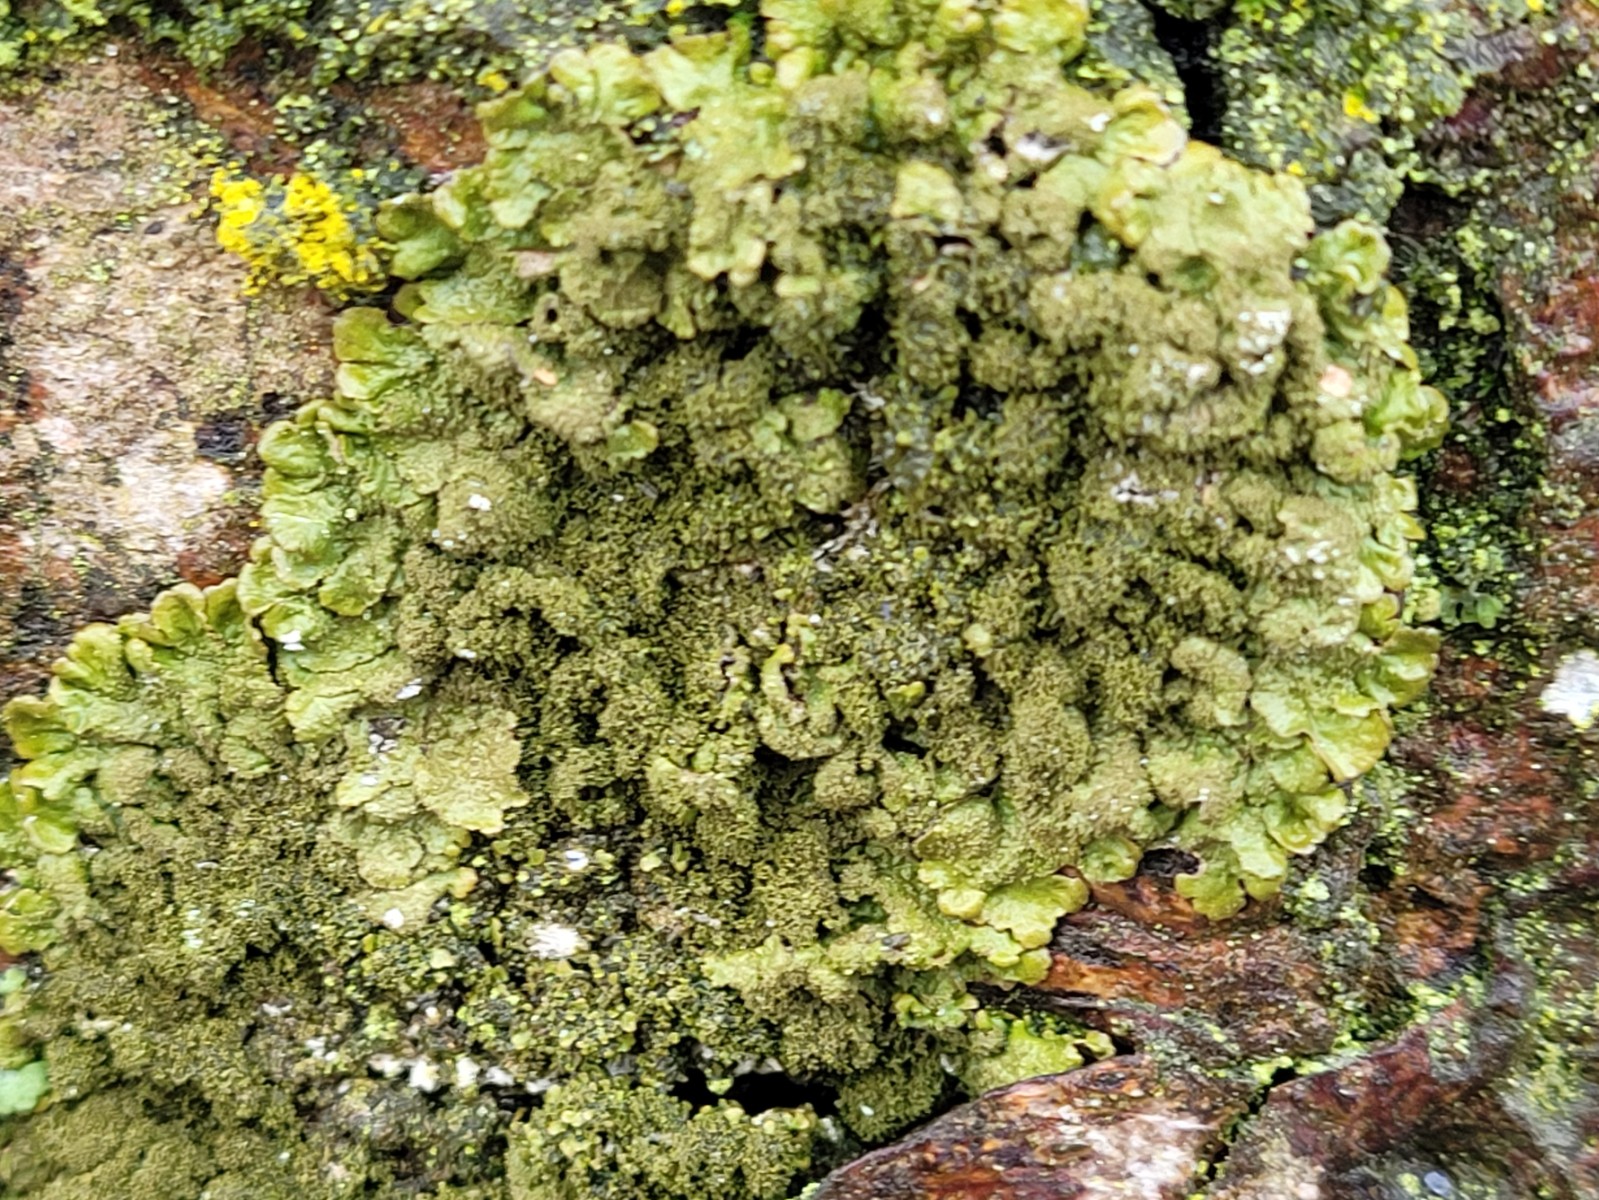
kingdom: Fungi
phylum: Ascomycota
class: Lecanoromycetes
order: Lecanorales
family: Parmeliaceae
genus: Melanelixia
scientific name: Melanelixia glabratula
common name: glinsende skållav
